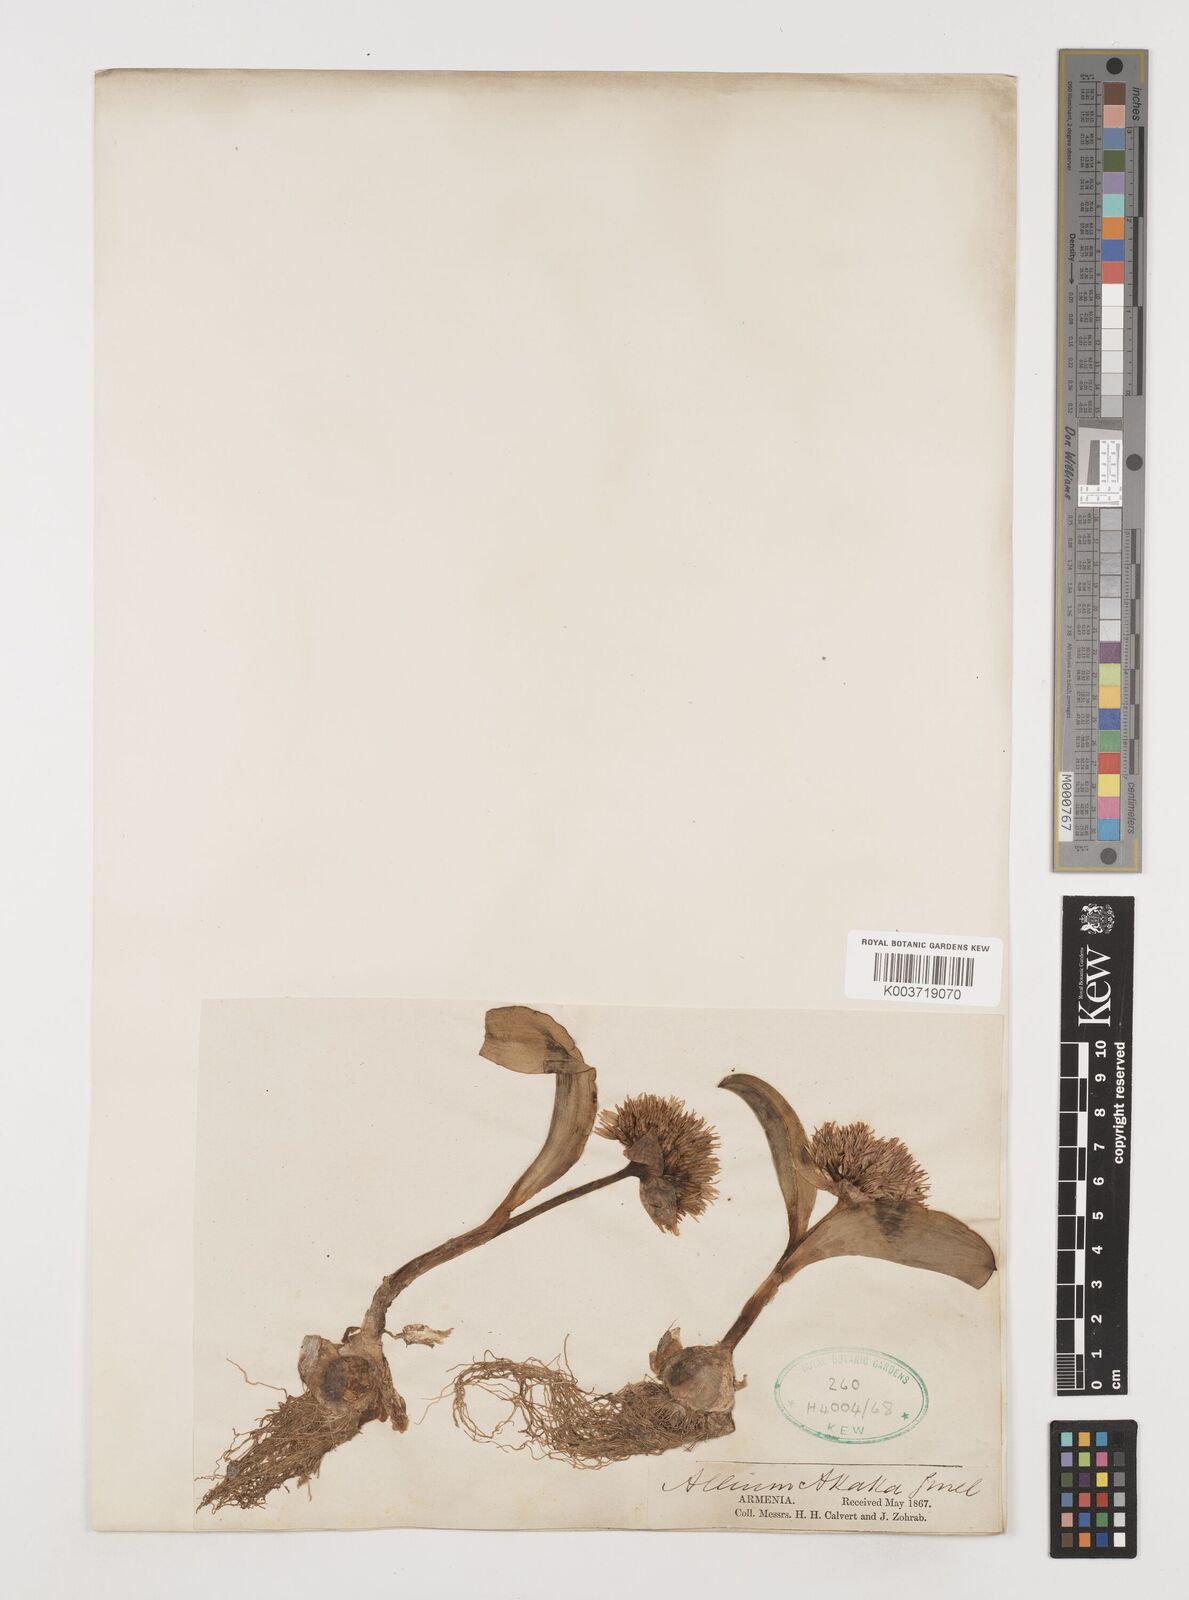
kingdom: Plantae
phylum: Tracheophyta
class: Liliopsida
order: Asparagales
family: Amaryllidaceae
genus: Allium
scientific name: Allium akaka
